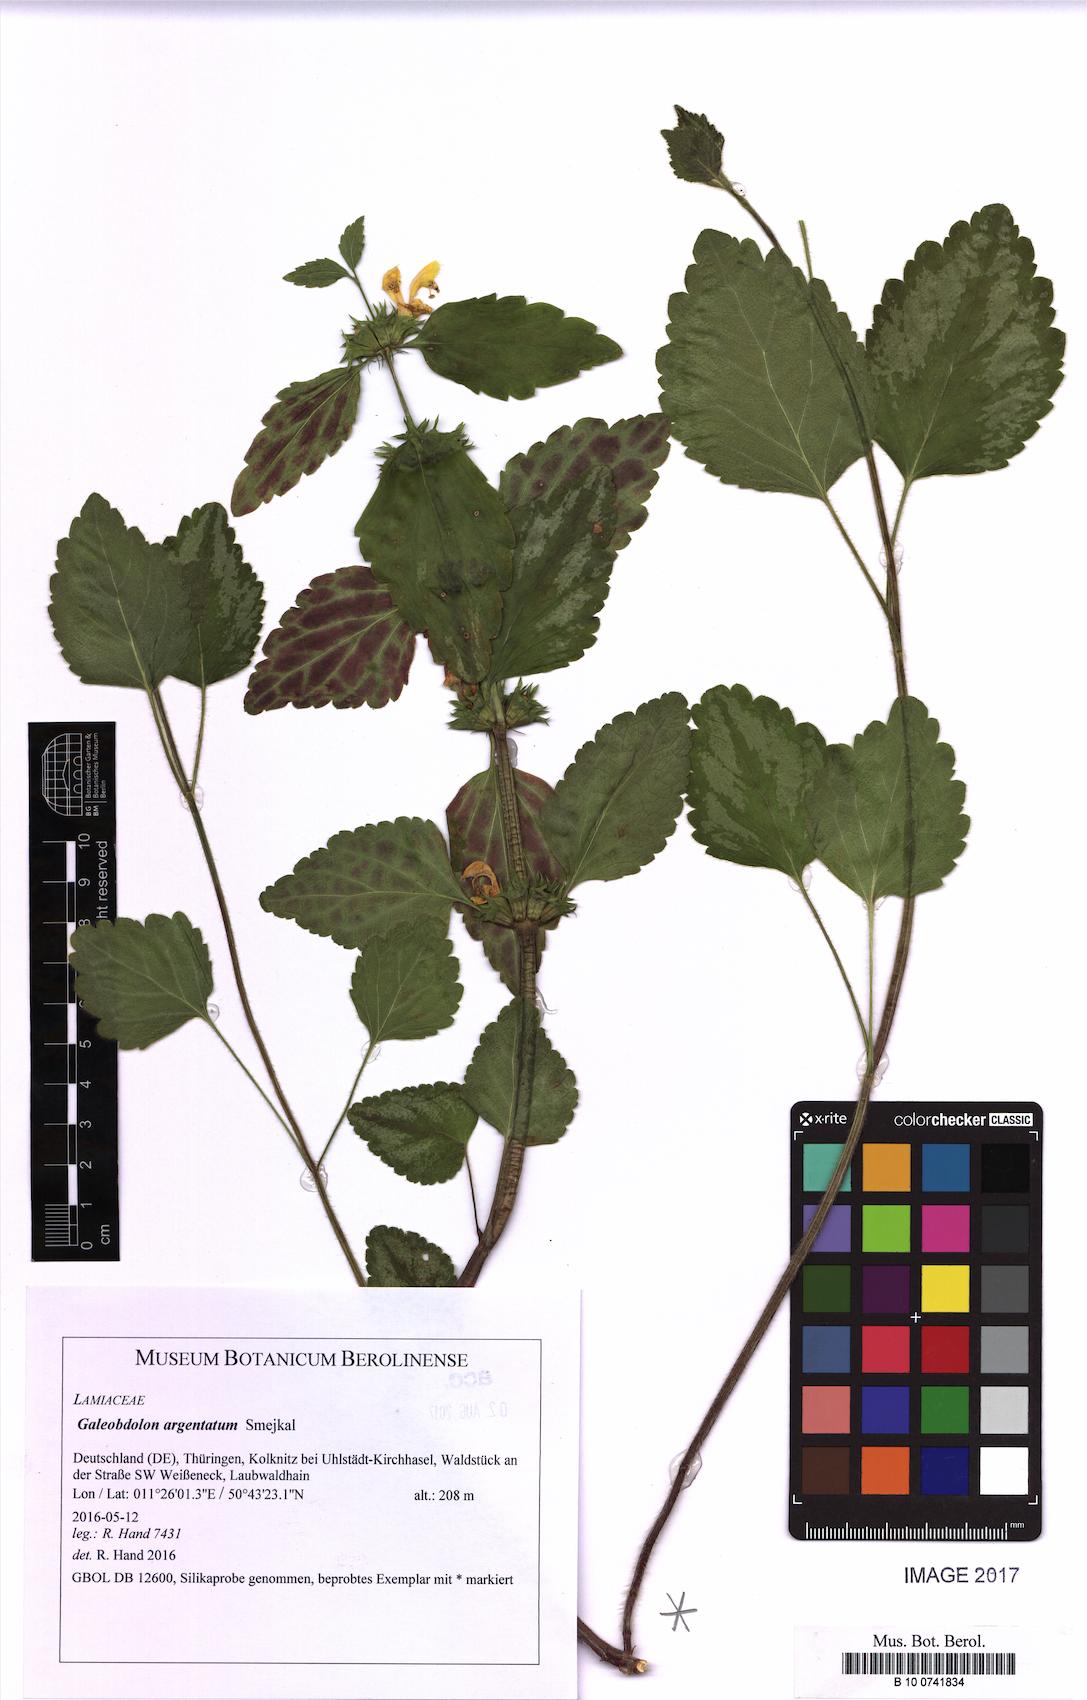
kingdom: Plantae
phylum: Tracheophyta
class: Magnoliopsida
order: Lamiales
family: Lamiaceae
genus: Lamium
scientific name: Lamium galeobdolon
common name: Yellow archangel
